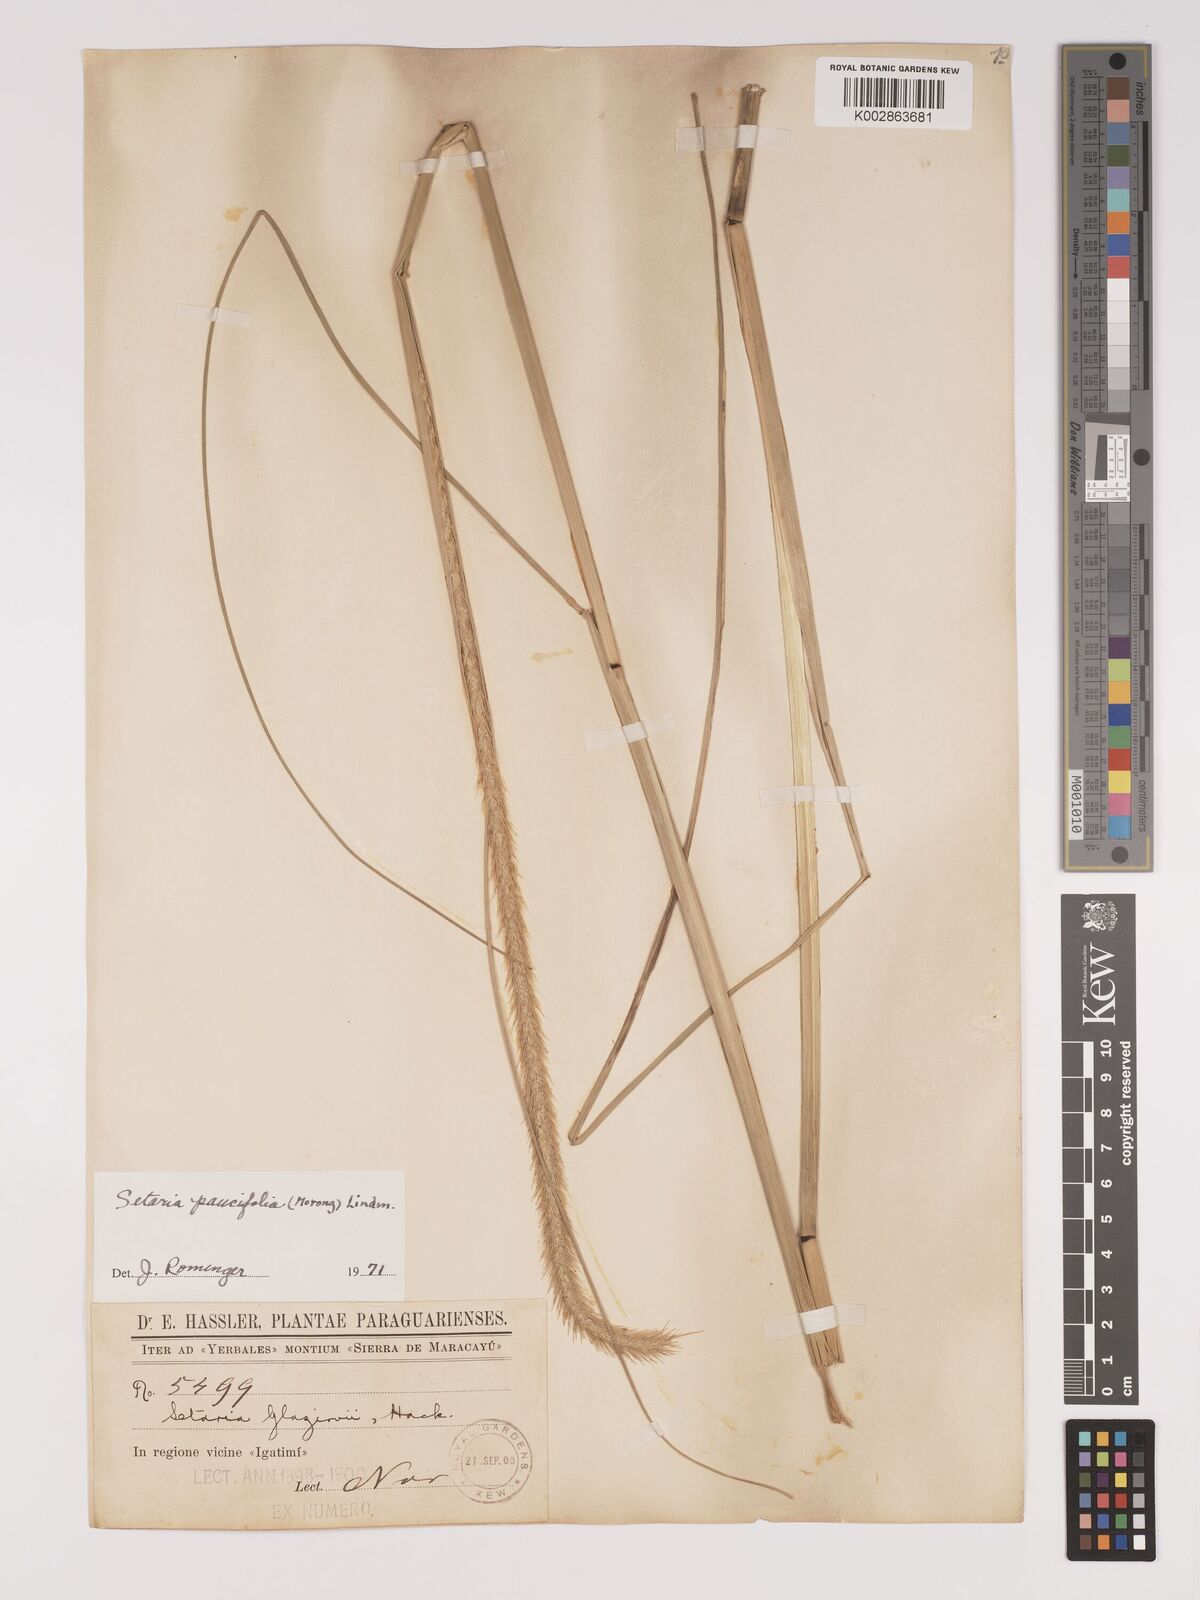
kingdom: Plantae
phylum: Tracheophyta
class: Liliopsida
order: Poales
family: Poaceae
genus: Setaria
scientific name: Setaria paucifolia
